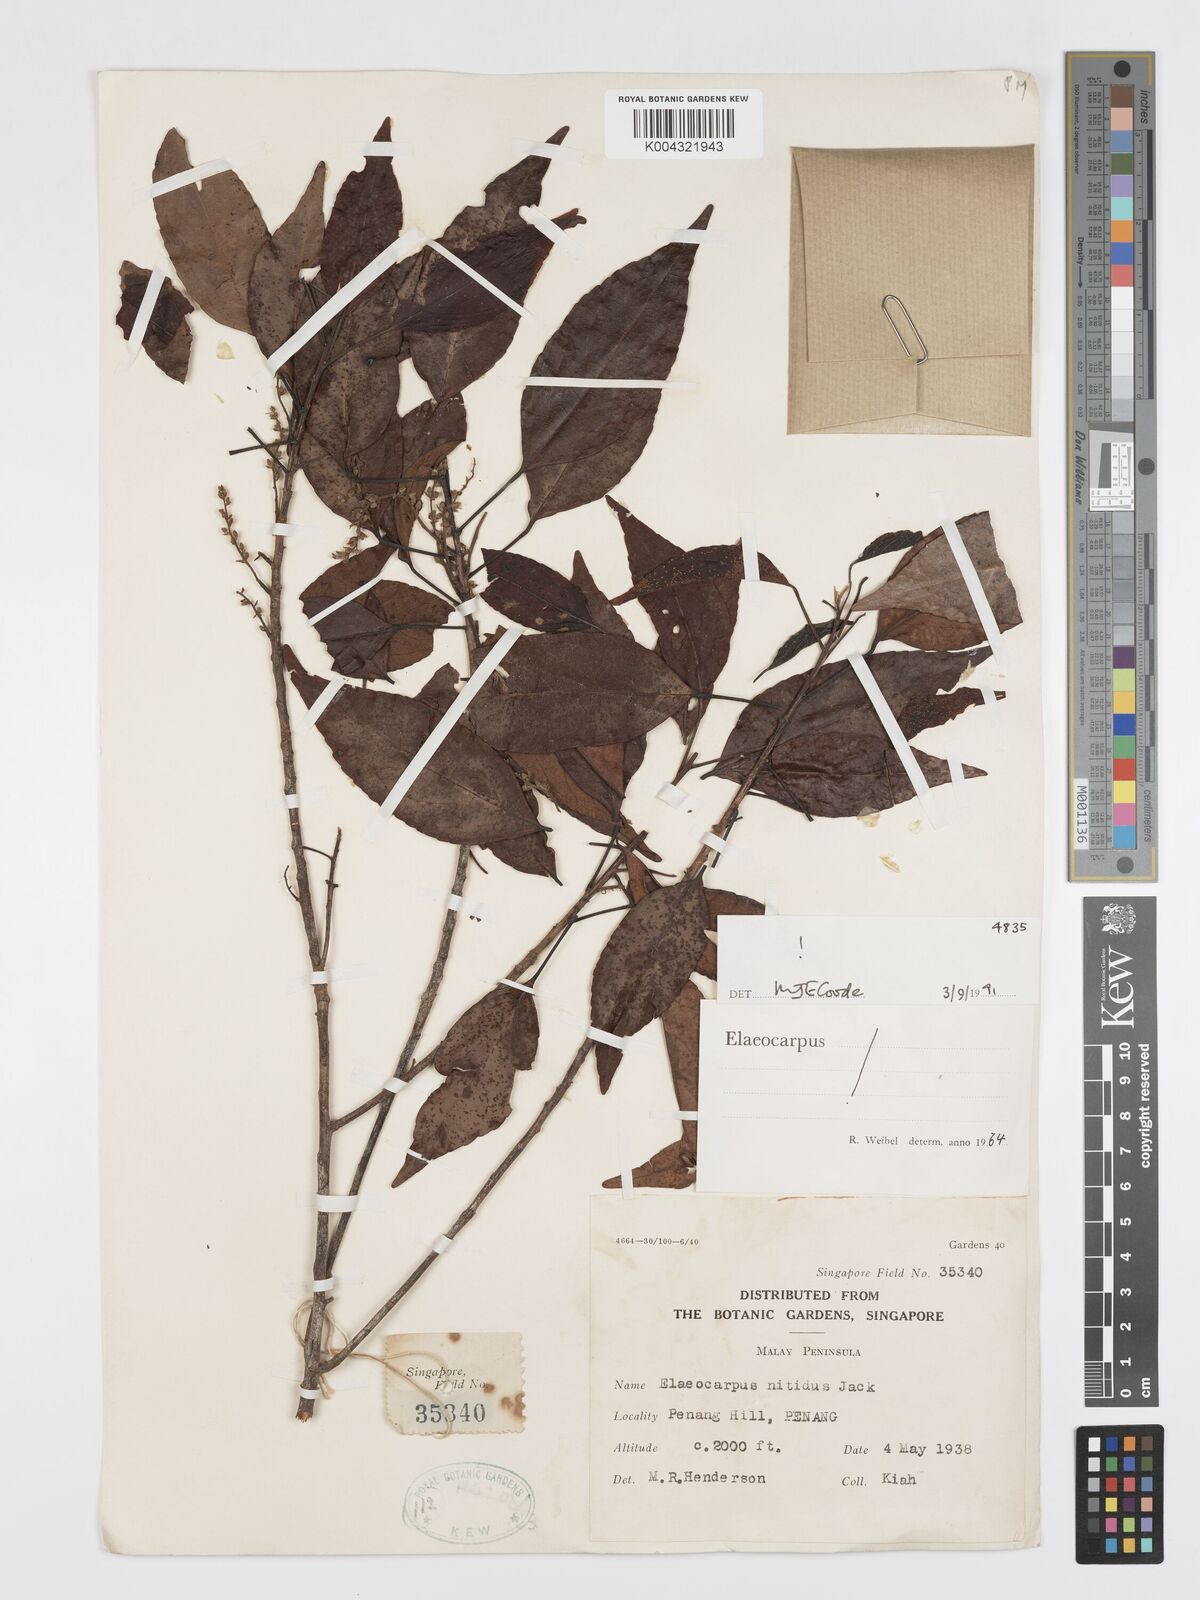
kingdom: Plantae
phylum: Tracheophyta
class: Magnoliopsida
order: Oxalidales
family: Elaeocarpaceae
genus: Elaeocarpus
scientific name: Elaeocarpus nitidus
